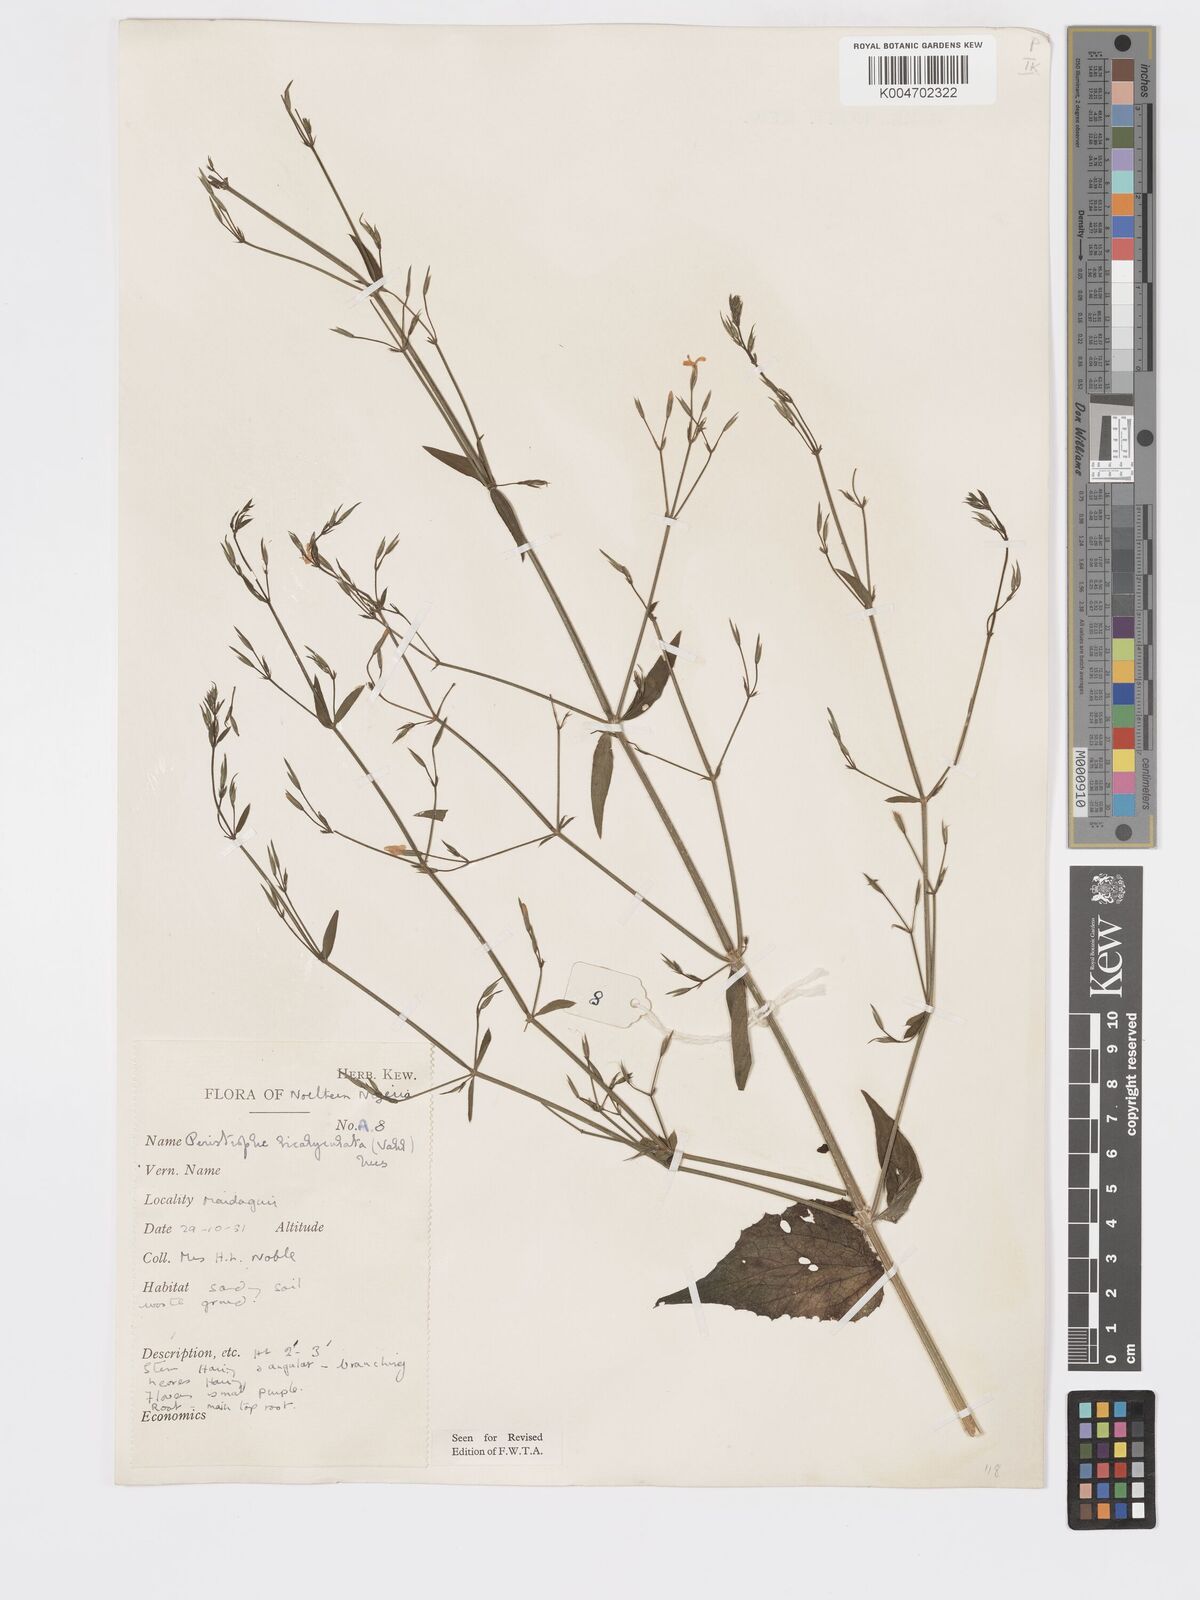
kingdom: Plantae
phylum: Tracheophyta
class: Magnoliopsida
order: Lamiales
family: Acanthaceae
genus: Dicliptera
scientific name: Dicliptera paniculata
